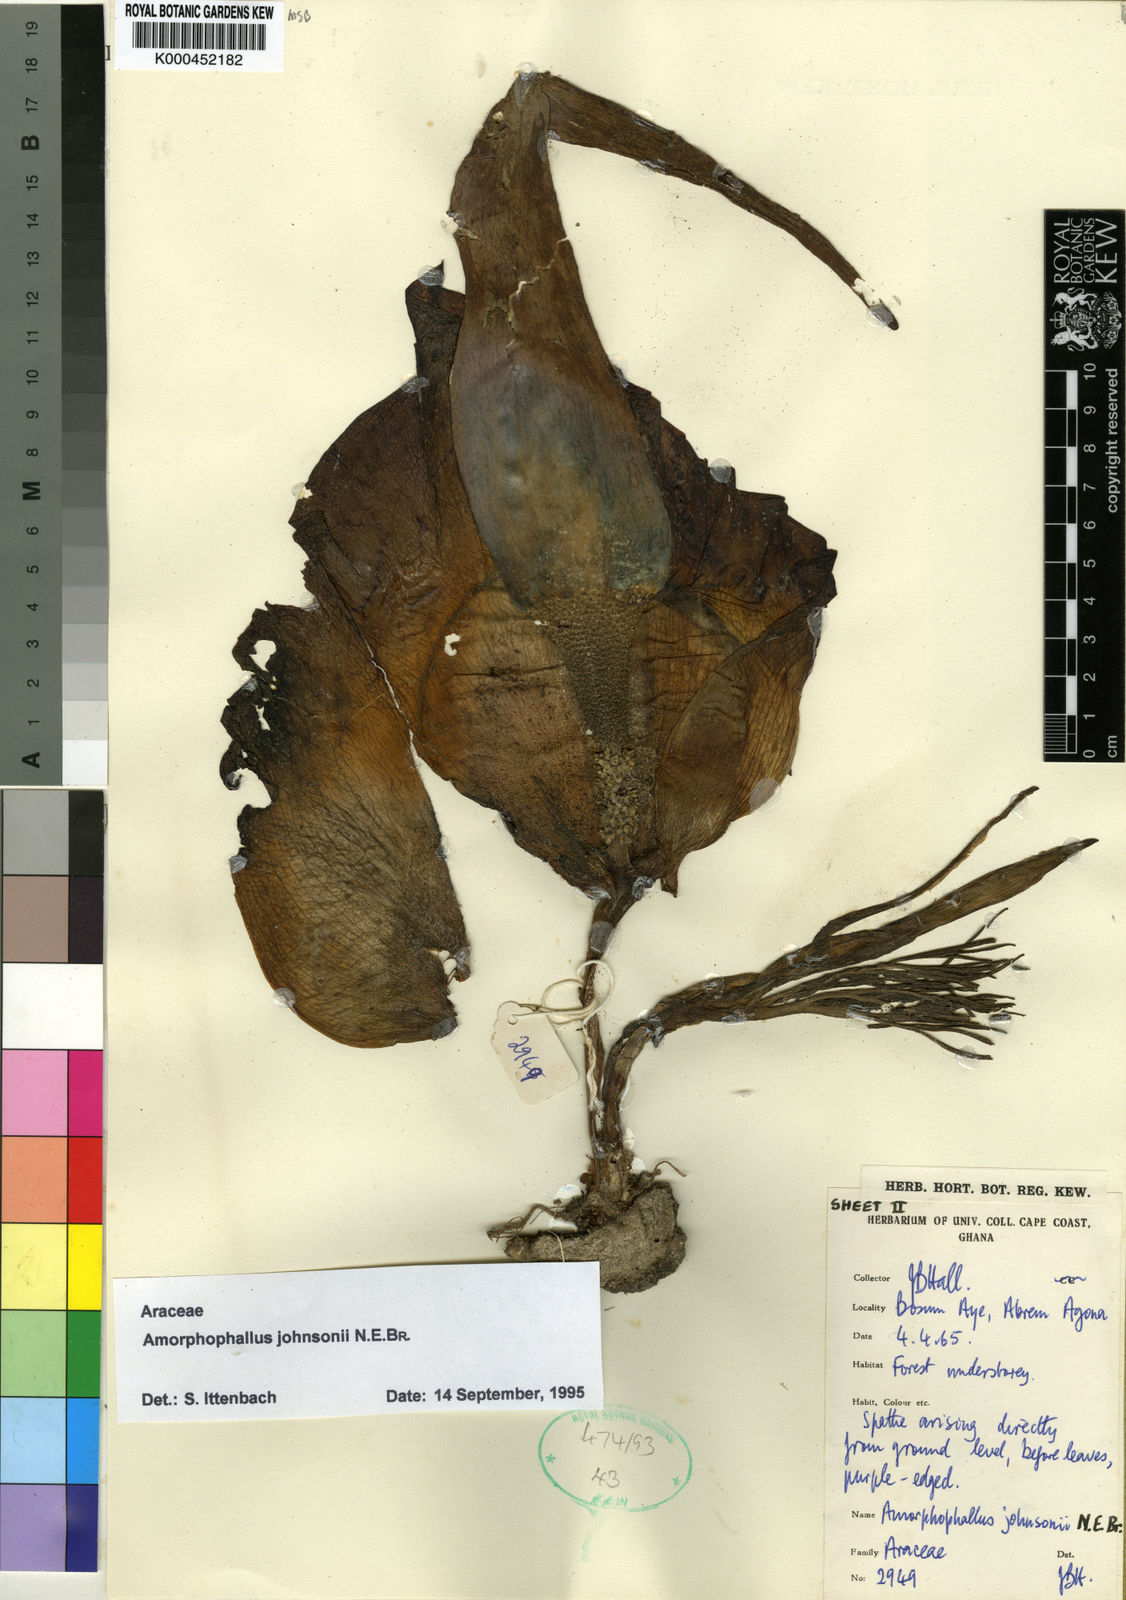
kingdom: Plantae
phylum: Tracheophyta
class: Liliopsida
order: Alismatales
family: Araceae
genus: Amorphophallus
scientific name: Amorphophallus johnsonii
